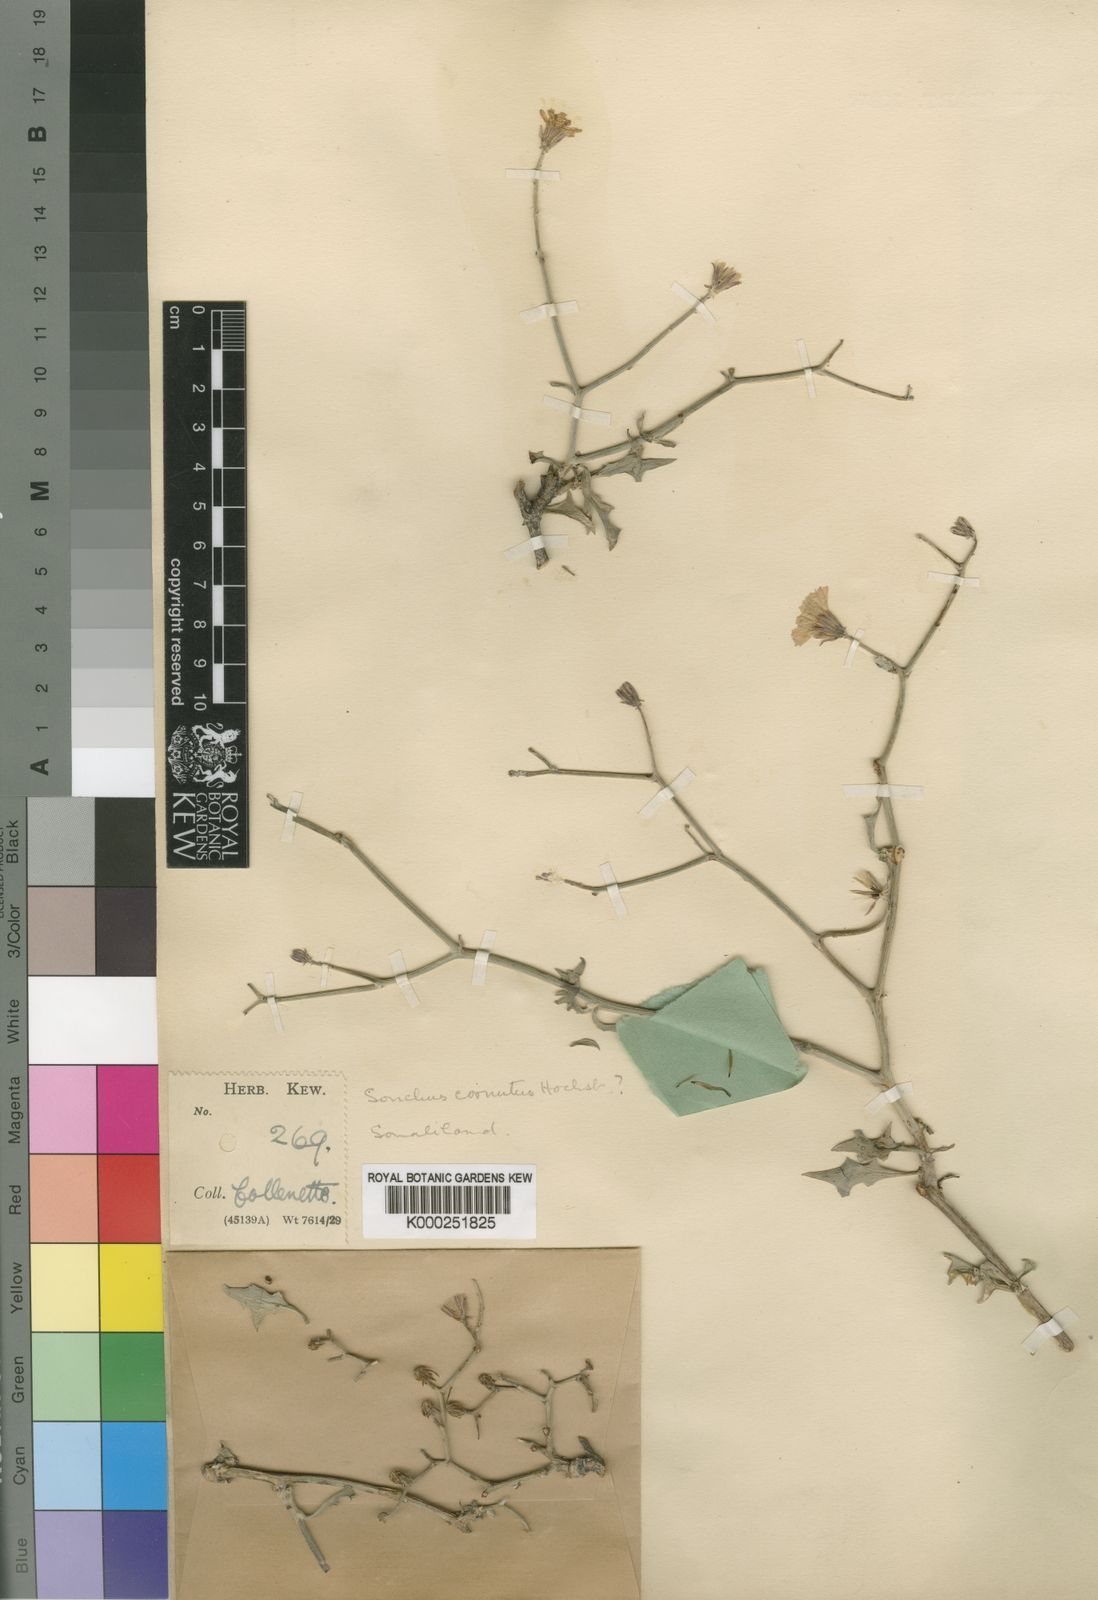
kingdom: Plantae
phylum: Tracheophyta
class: Magnoliopsida
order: Asterales
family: Asteraceae
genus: Erythroseris
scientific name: Erythroseris
